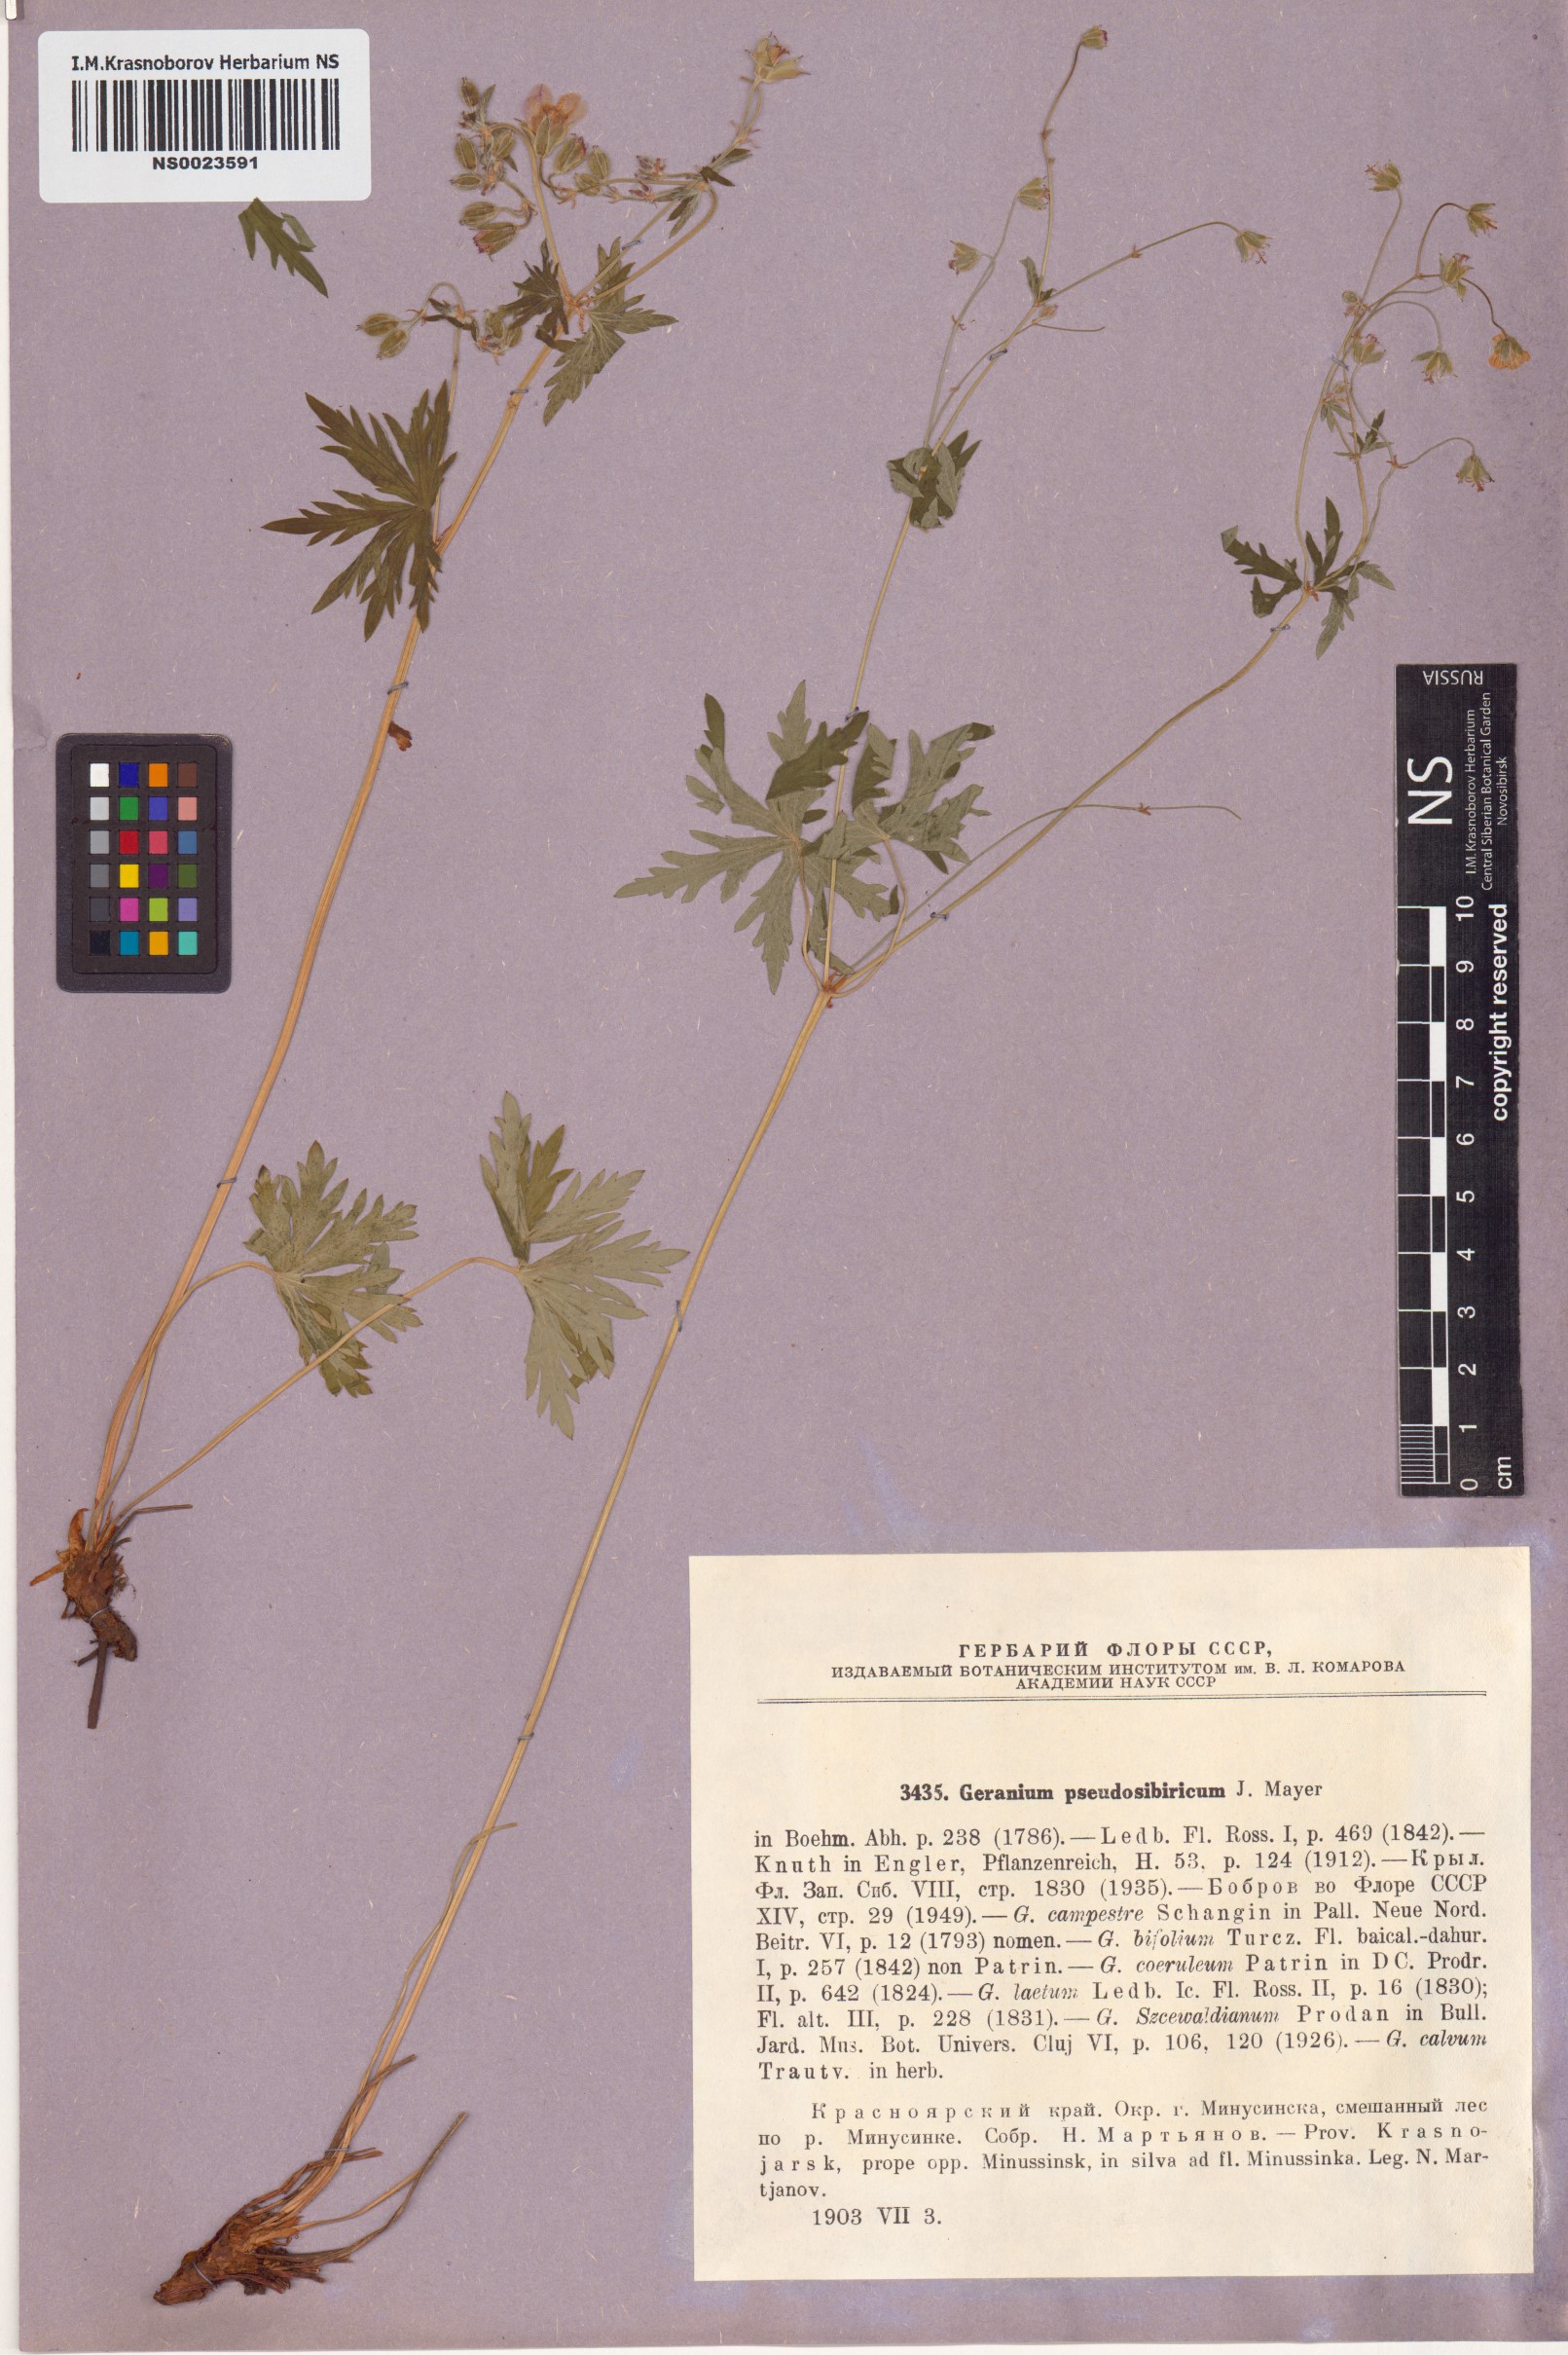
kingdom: Plantae
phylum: Tracheophyta
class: Magnoliopsida
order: Geraniales
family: Geraniaceae
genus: Geranium
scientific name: Geranium pseudosibiricum
